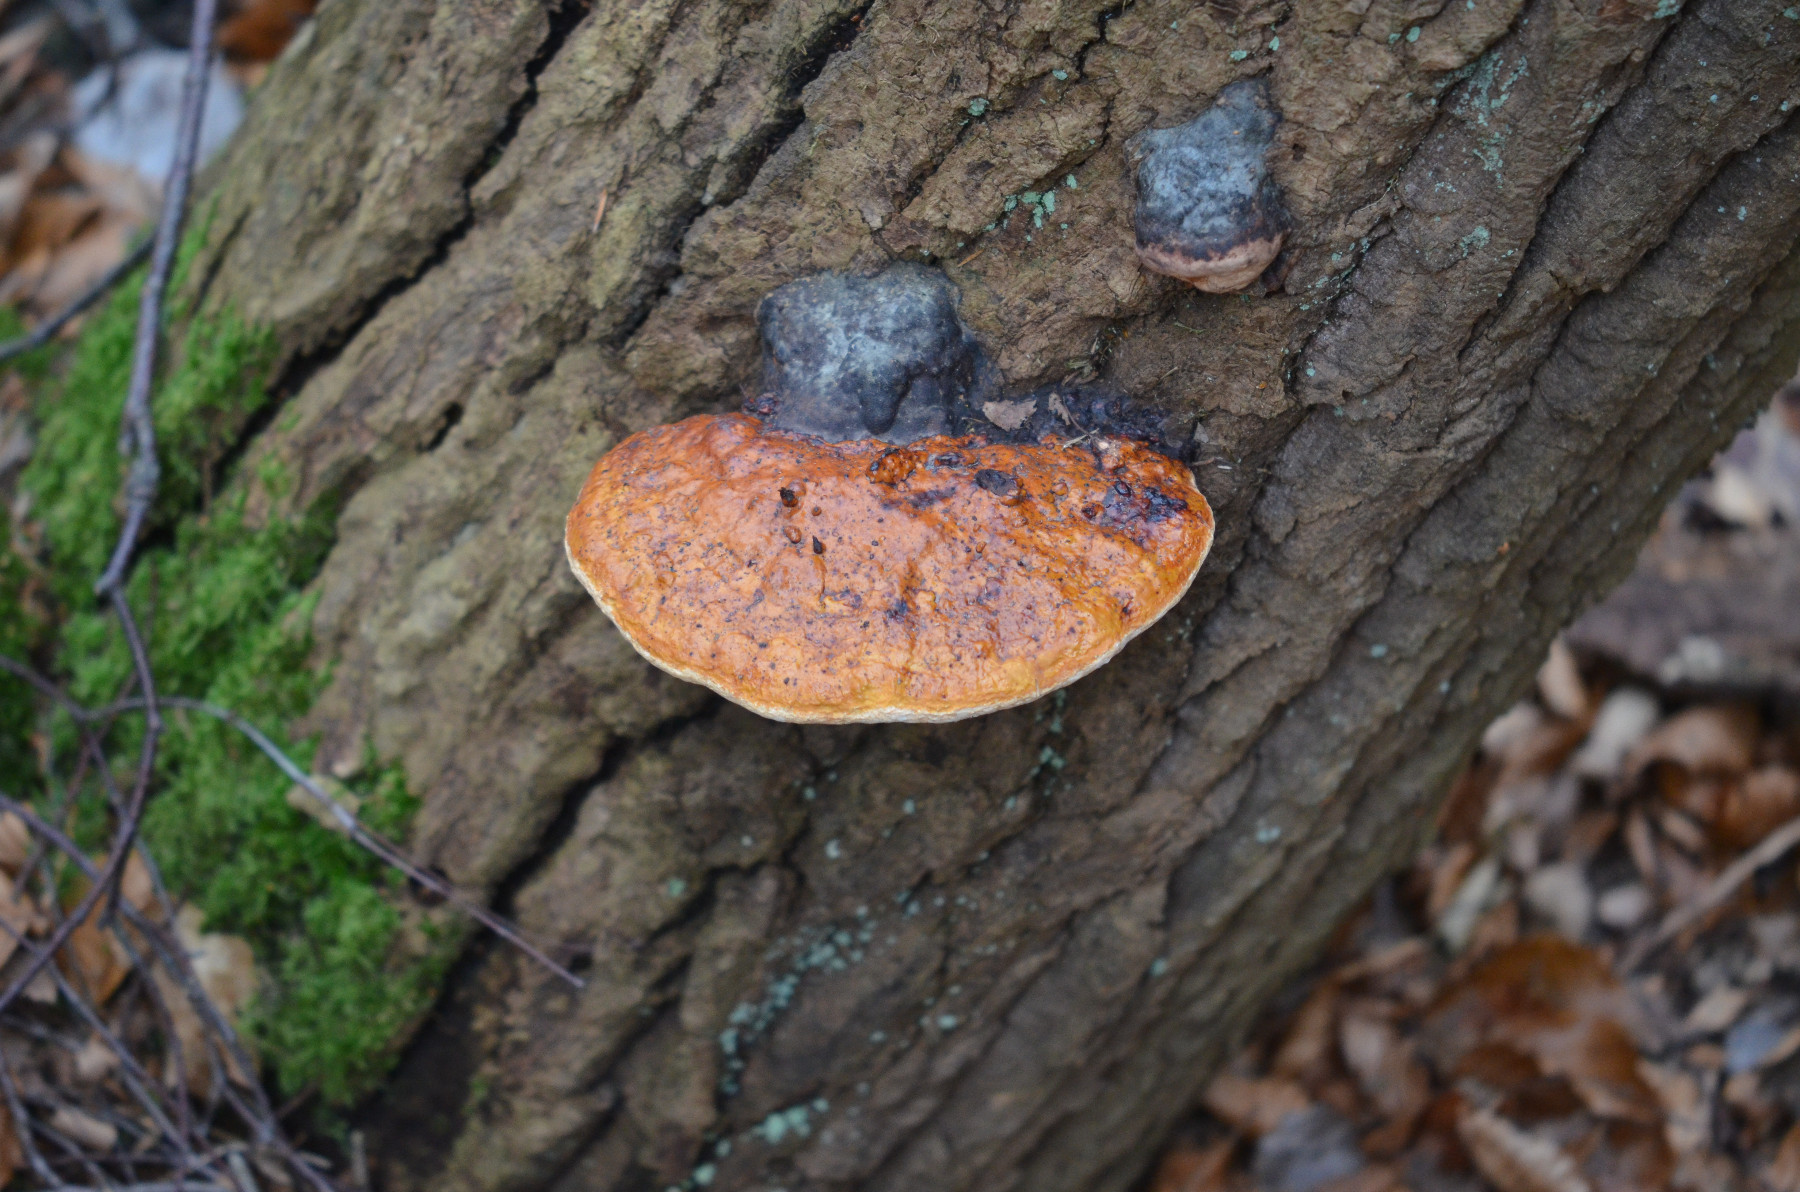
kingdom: Fungi
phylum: Basidiomycota
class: Agaricomycetes
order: Polyporales
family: Fomitopsidaceae
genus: Fomitopsis
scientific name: Fomitopsis pinicola
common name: randbæltet hovporesvamp
